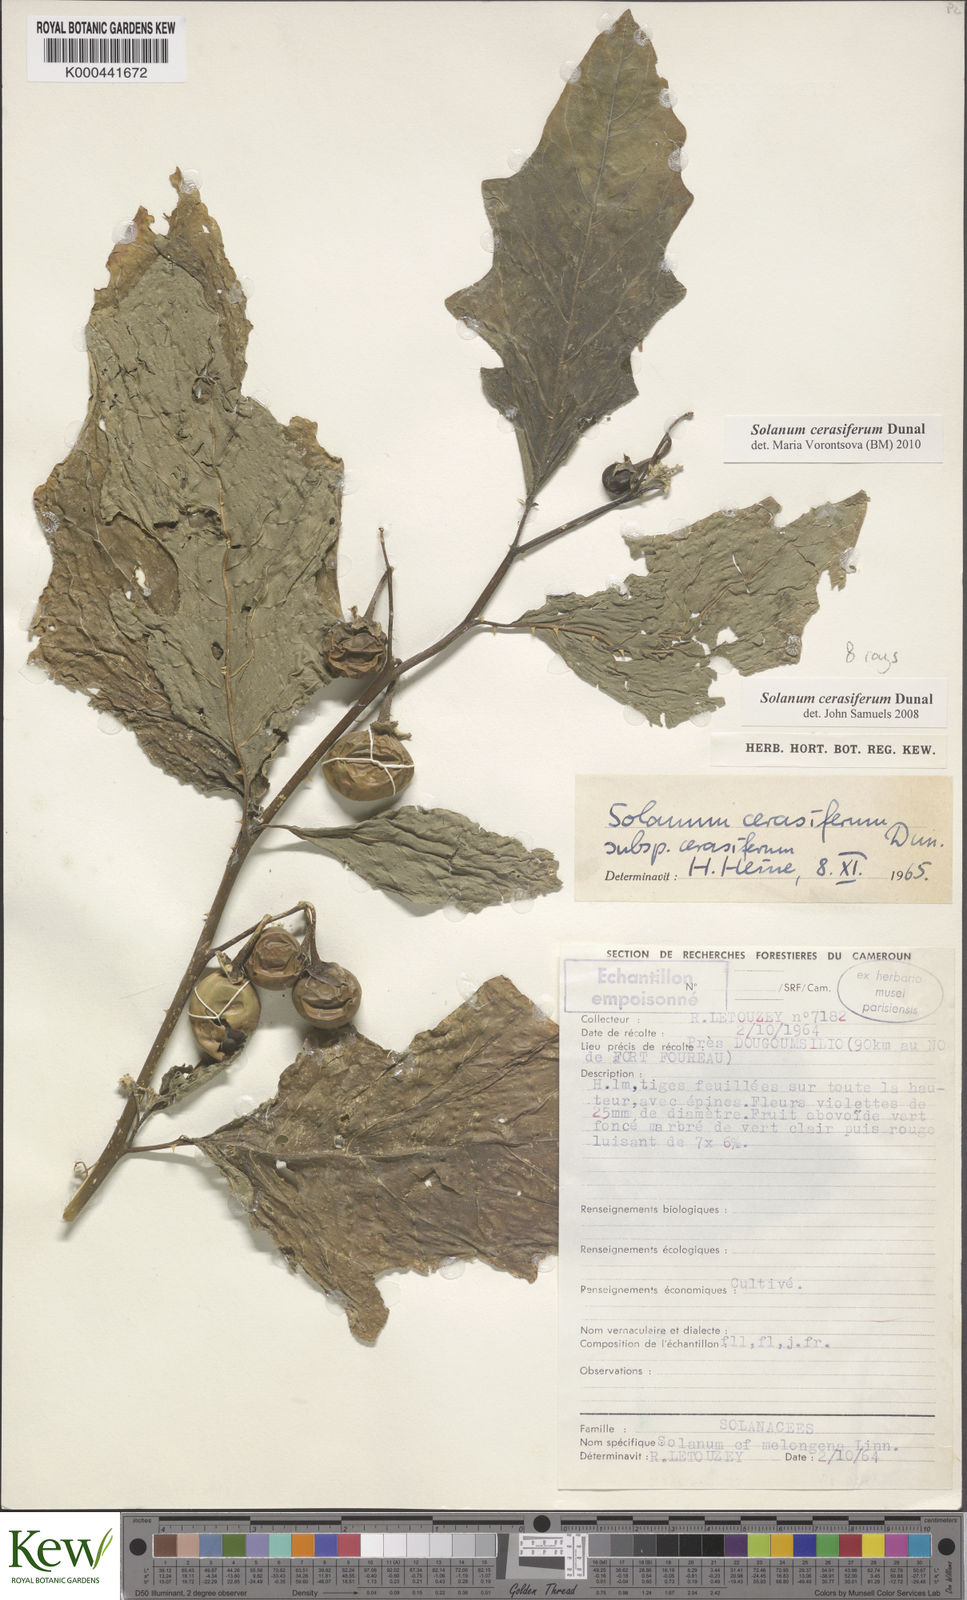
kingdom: Plantae
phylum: Tracheophyta
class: Magnoliopsida
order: Solanales
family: Solanaceae
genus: Solanum
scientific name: Solanum cerasiferum
